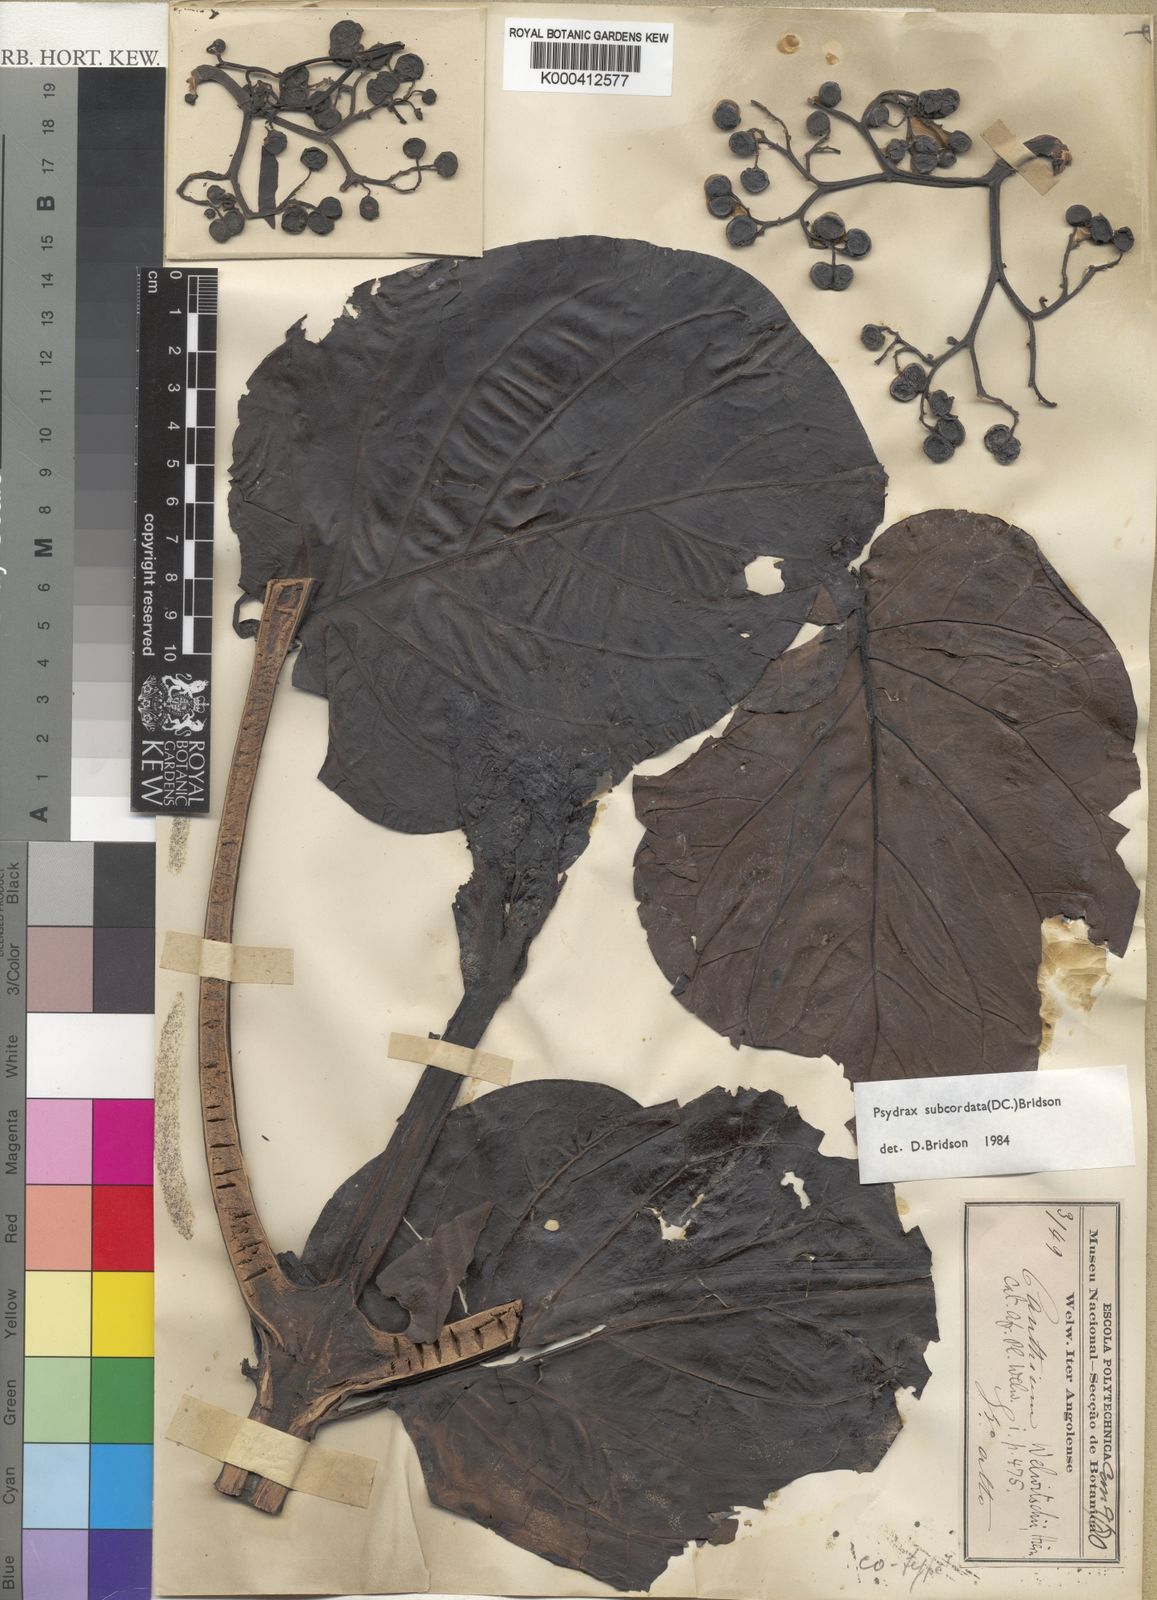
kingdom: Plantae
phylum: Tracheophyta
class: Magnoliopsida
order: Gentianales
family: Rubiaceae
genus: Psydrax
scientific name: Psydrax subcordatus
